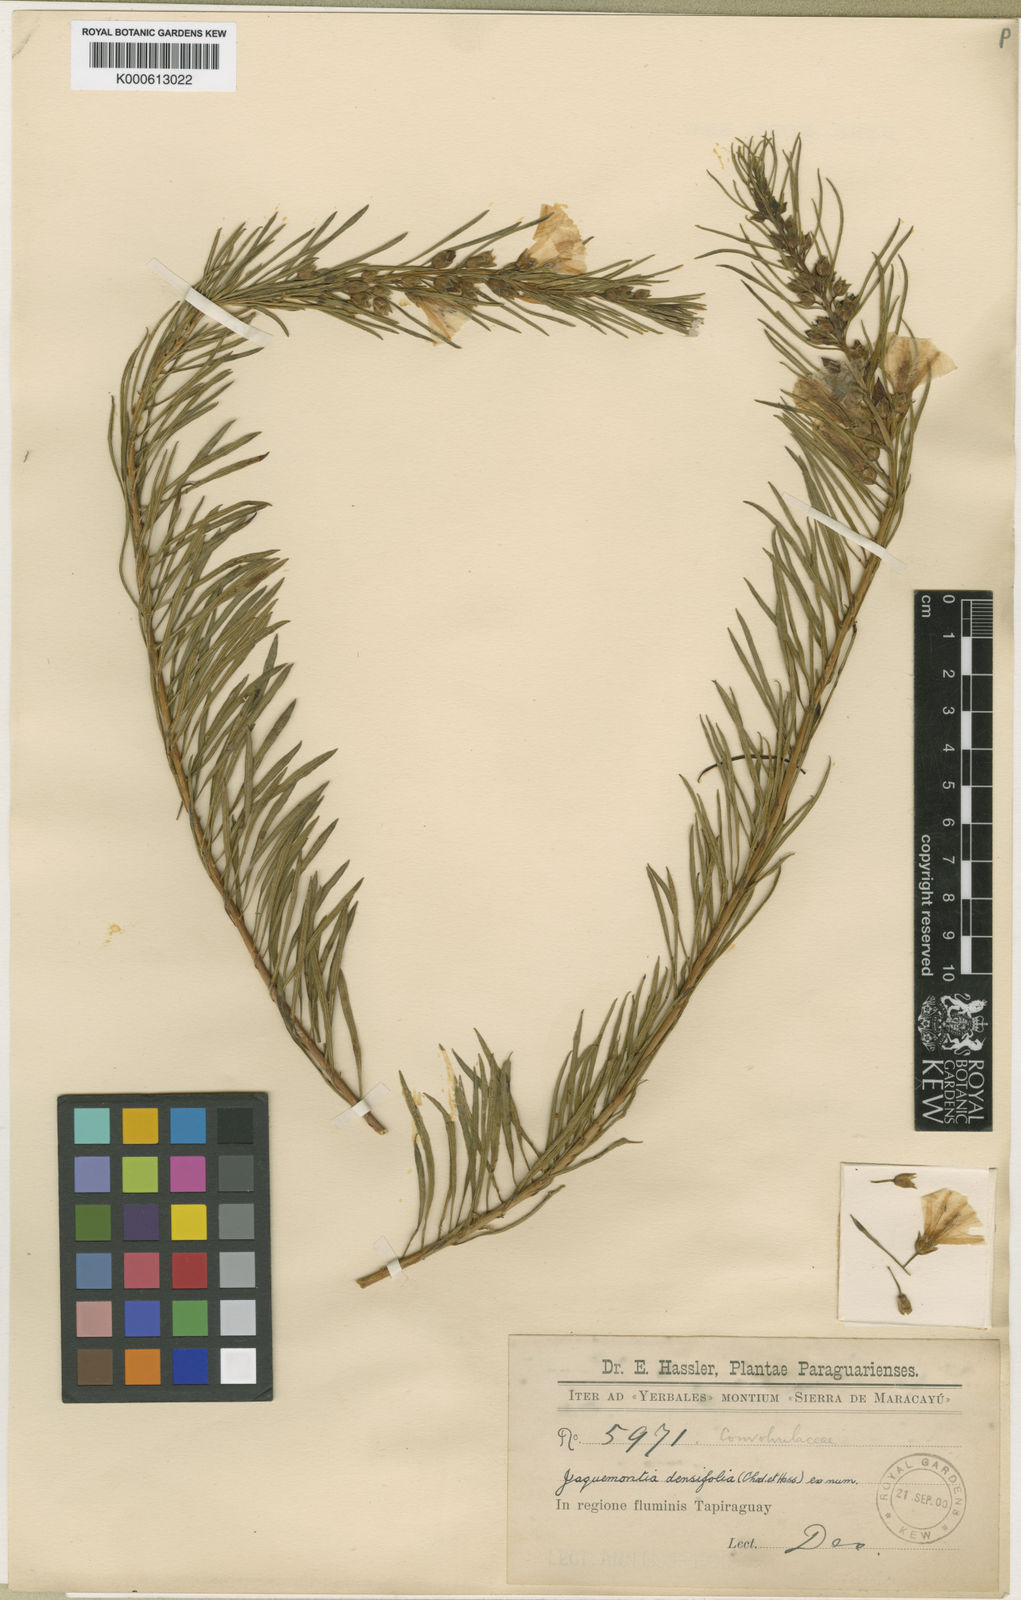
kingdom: Plantae
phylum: Tracheophyta
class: Magnoliopsida
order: Solanales
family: Convolvulaceae
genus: Jacquemontia
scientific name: Jacquemontia densiflora
